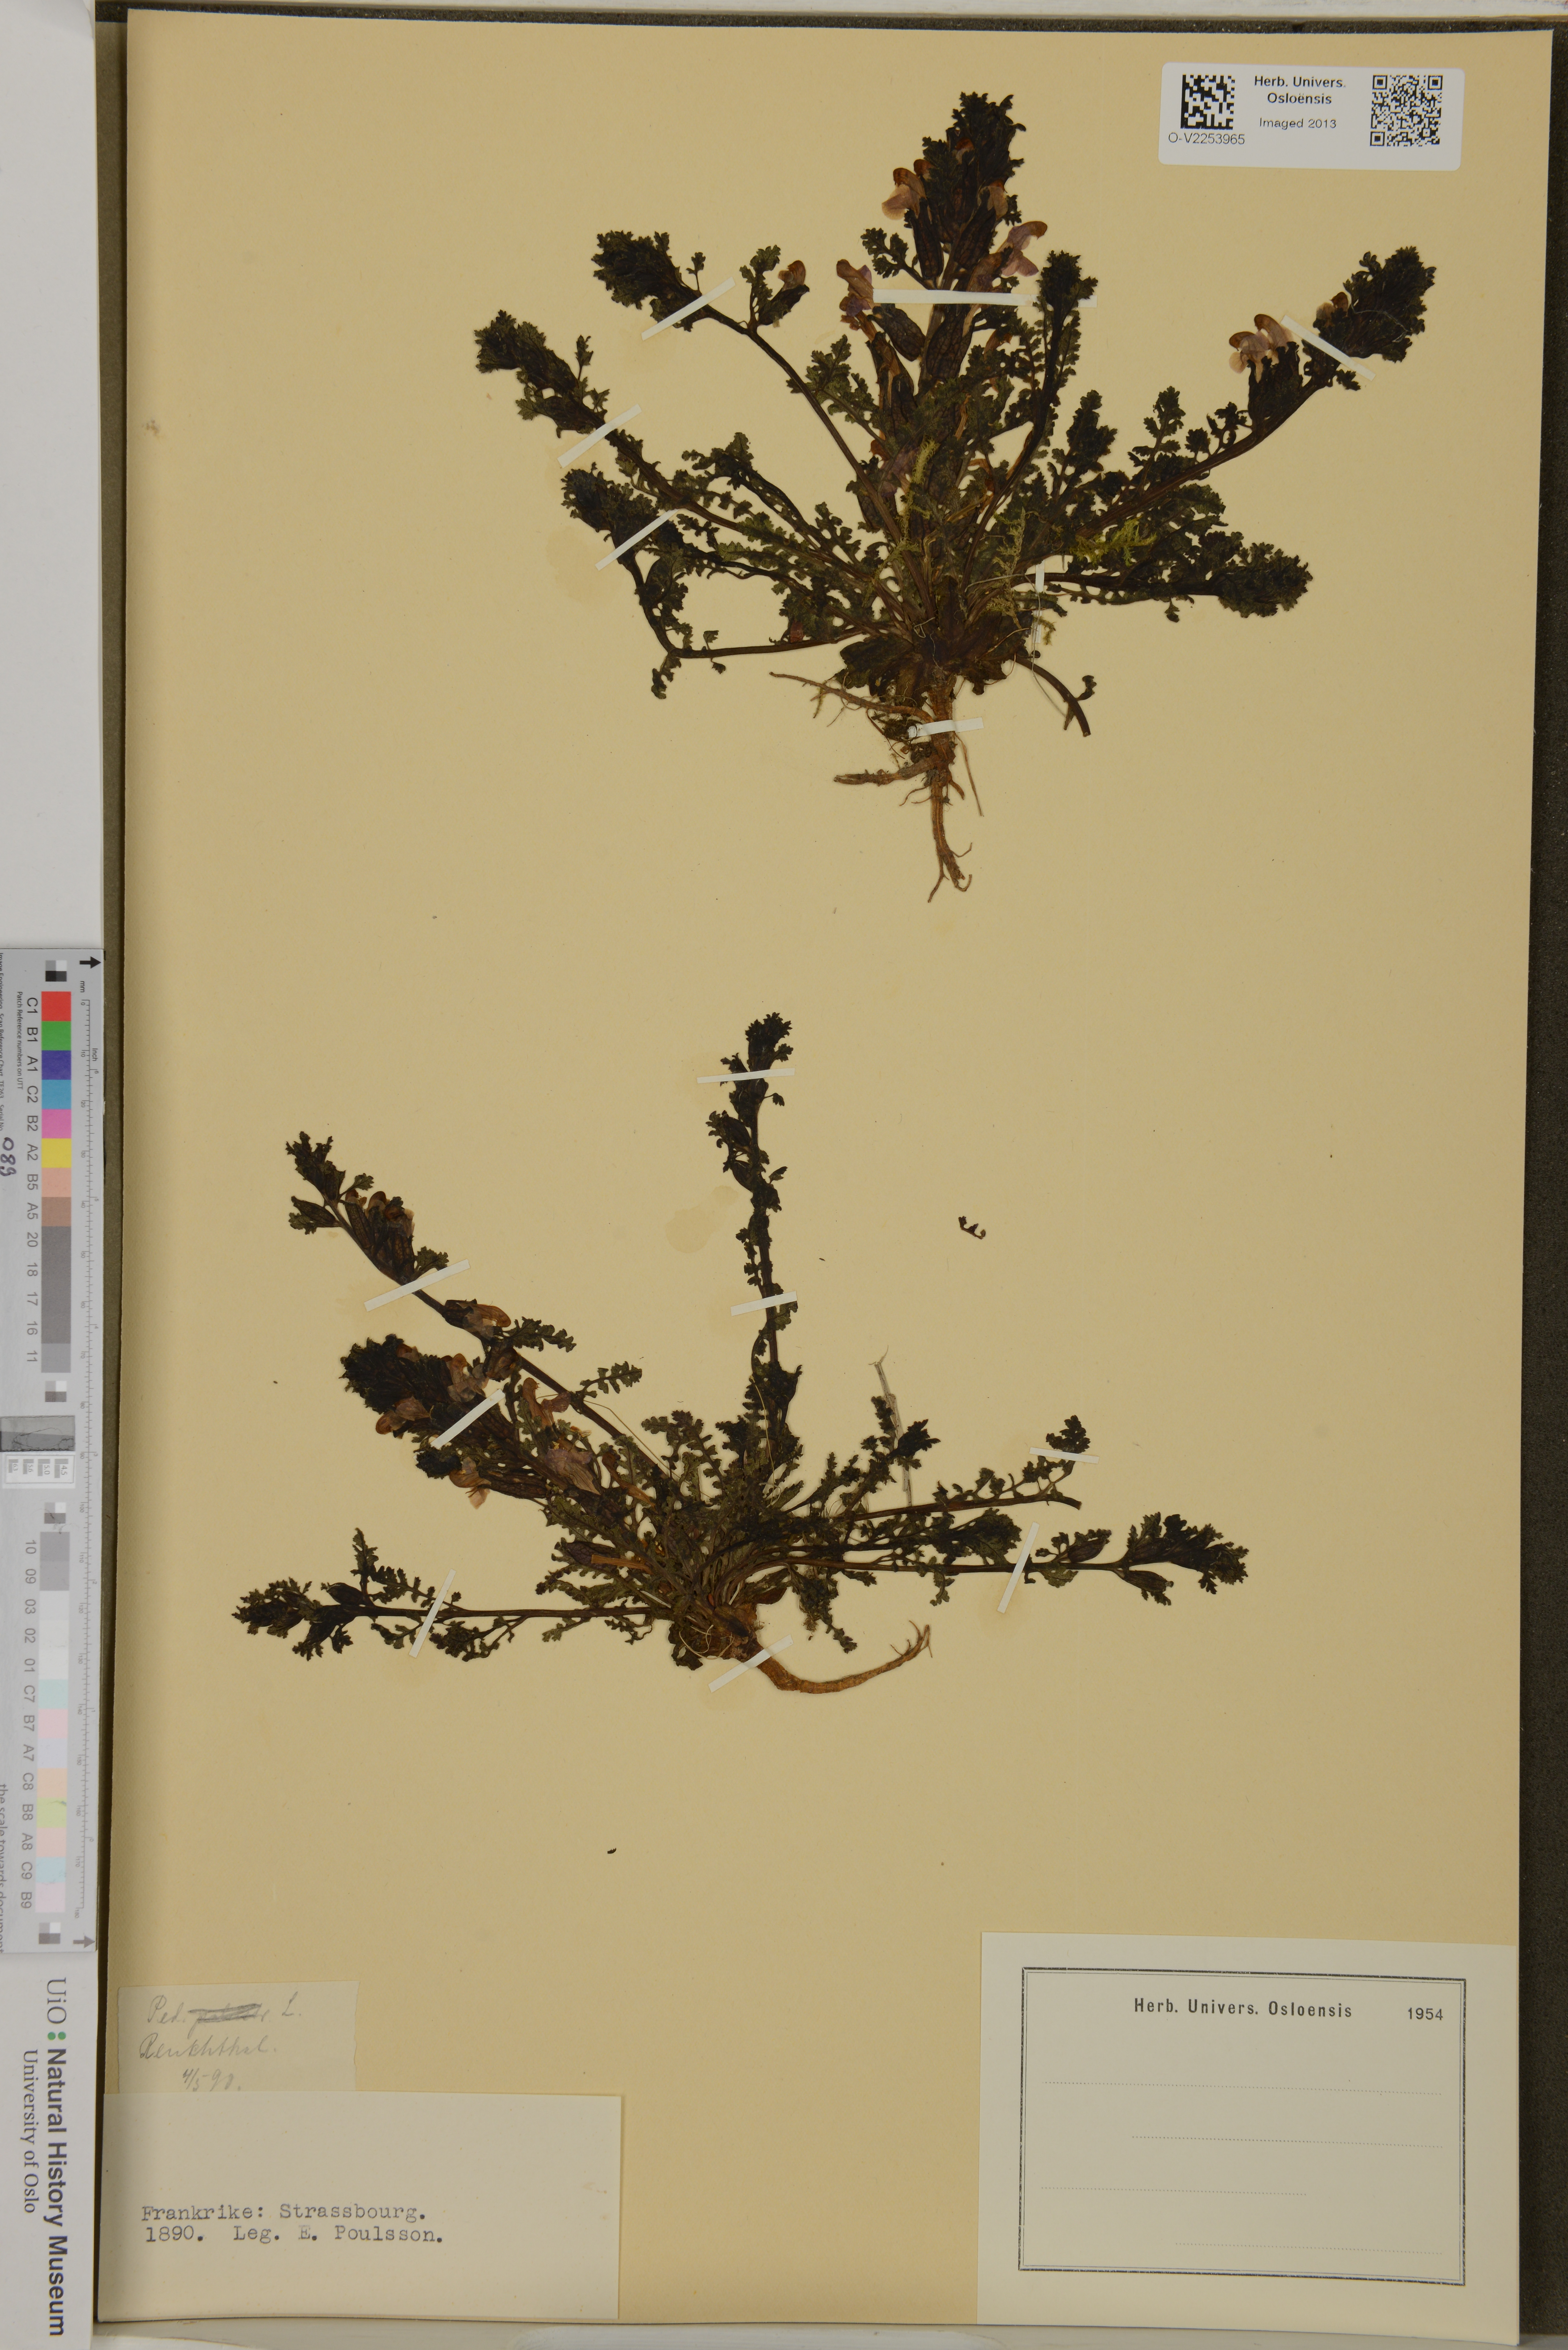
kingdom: Plantae
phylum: Tracheophyta
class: Magnoliopsida
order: Lamiales
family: Orobanchaceae
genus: Pedicularis
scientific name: Pedicularis
